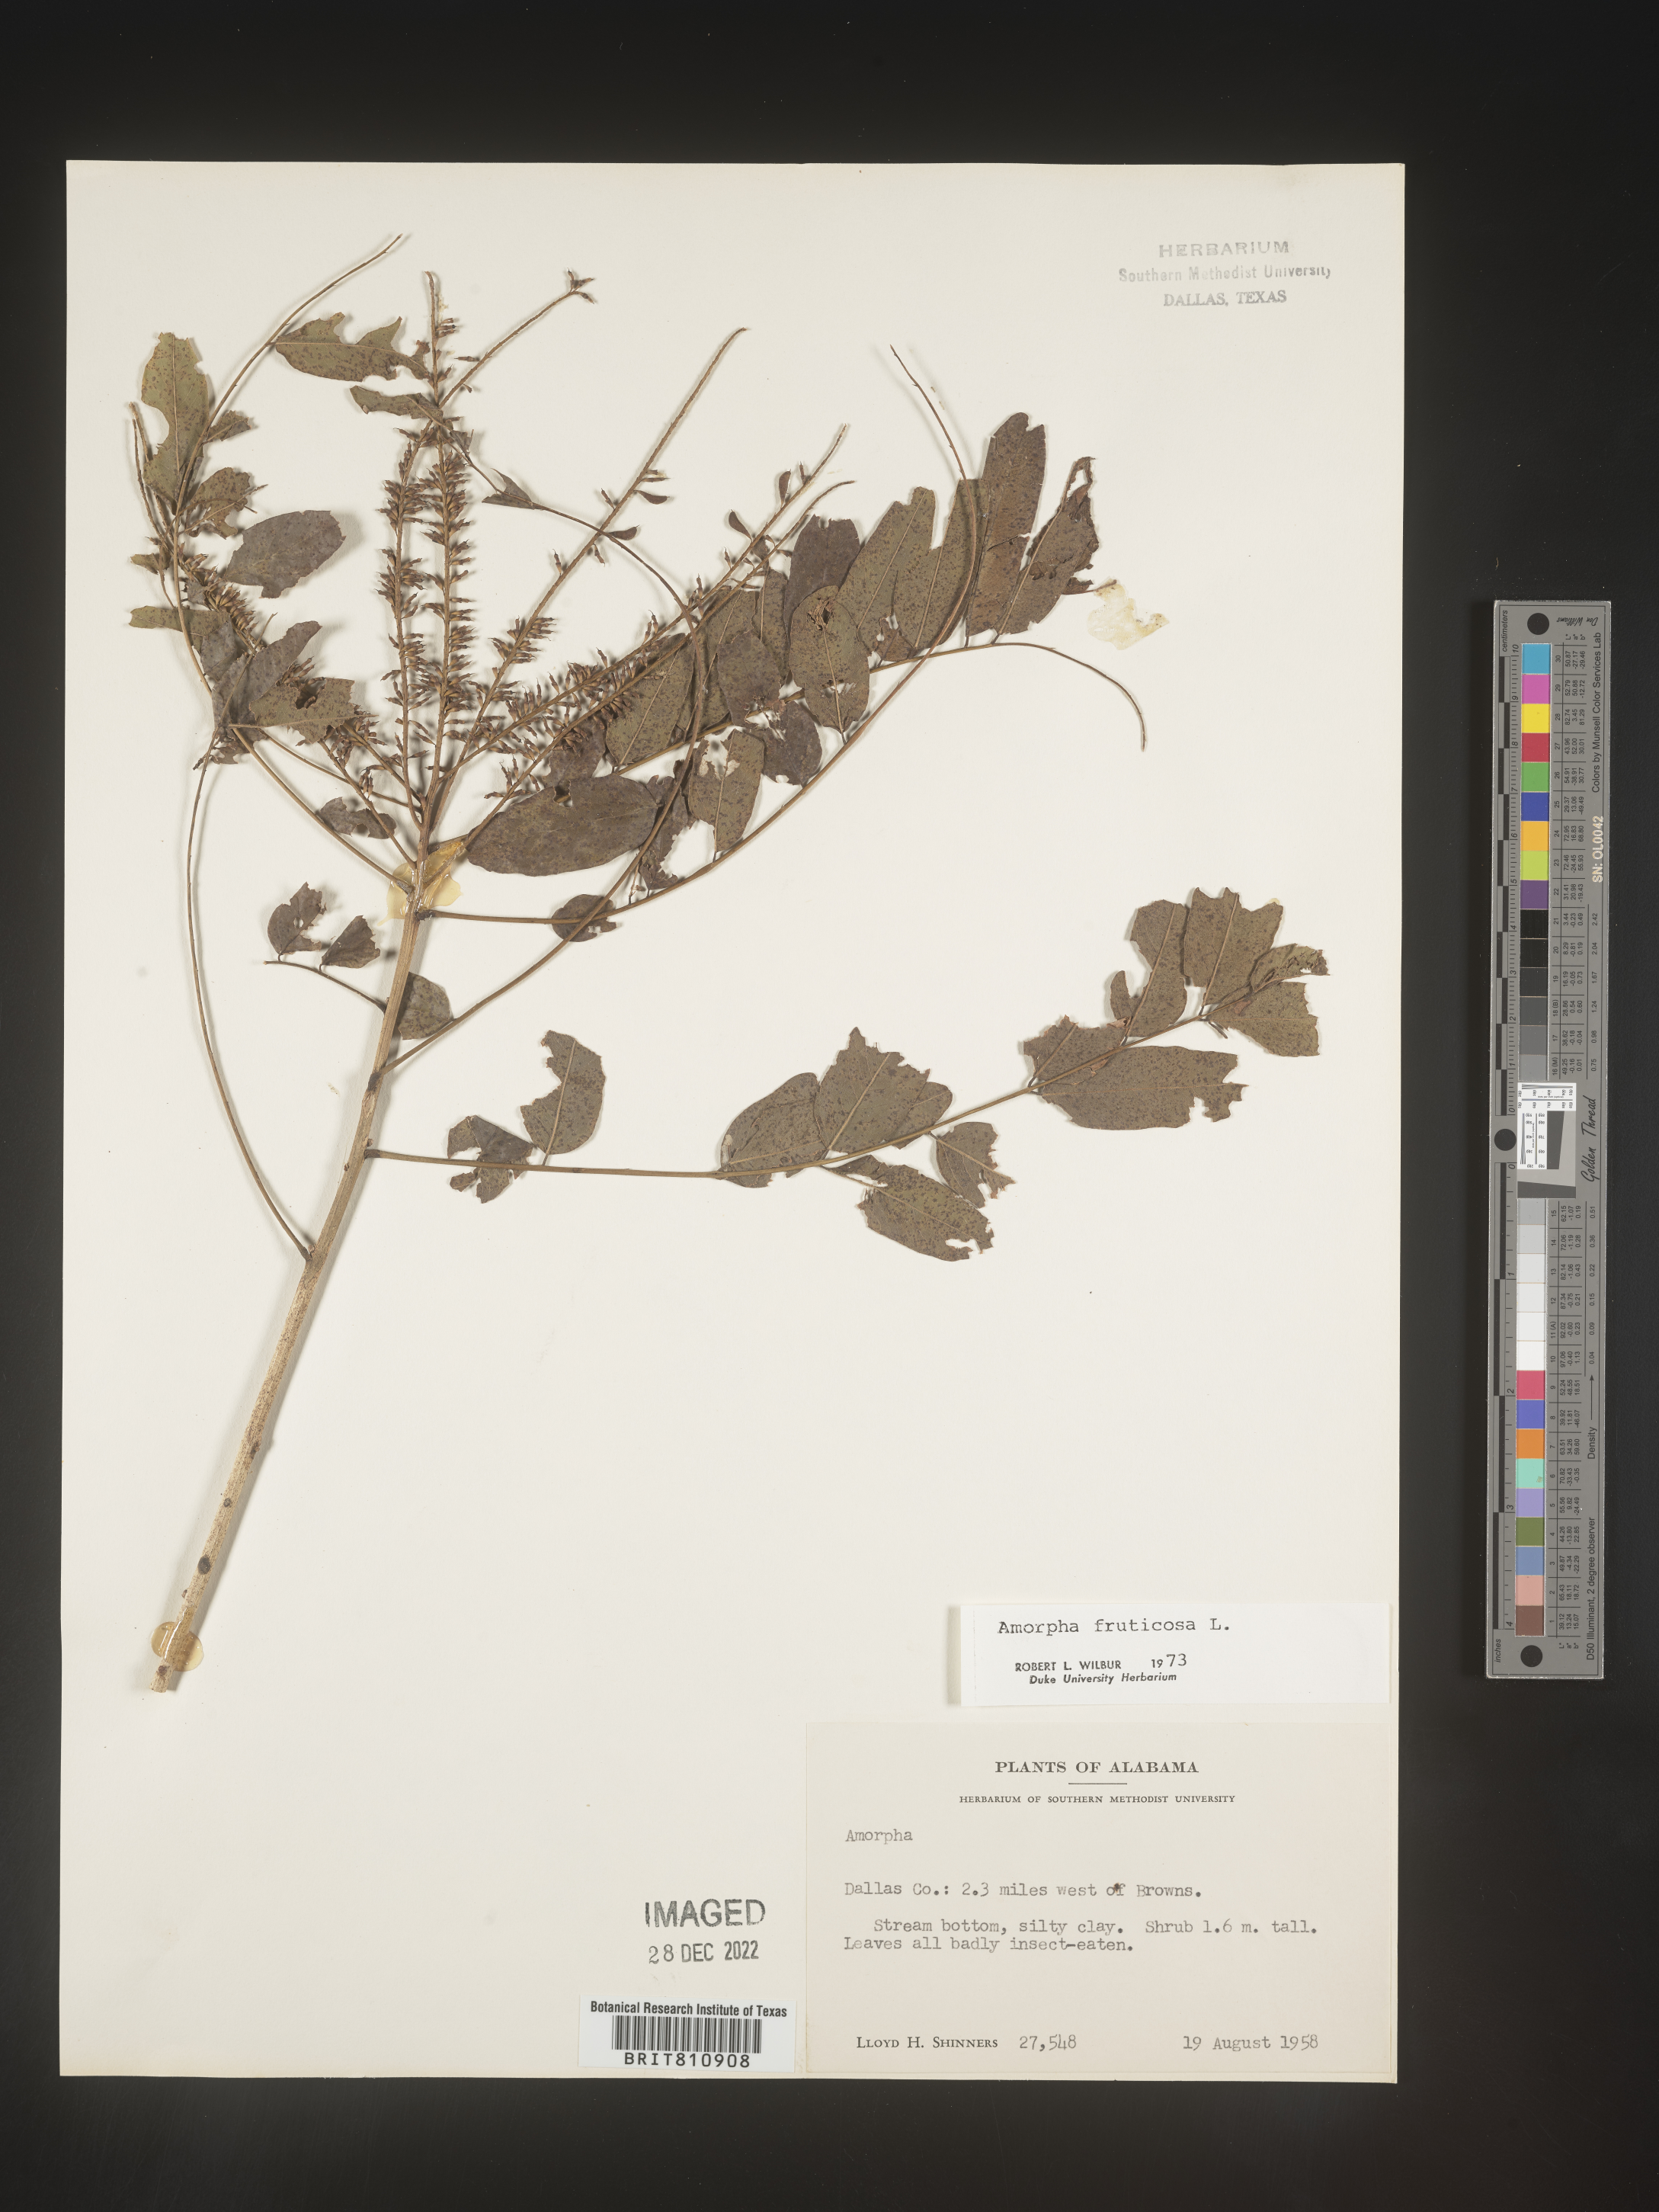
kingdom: Plantae
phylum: Tracheophyta
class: Magnoliopsida
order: Fabales
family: Fabaceae
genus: Amorpha
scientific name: Amorpha fruticosa
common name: False indigo
